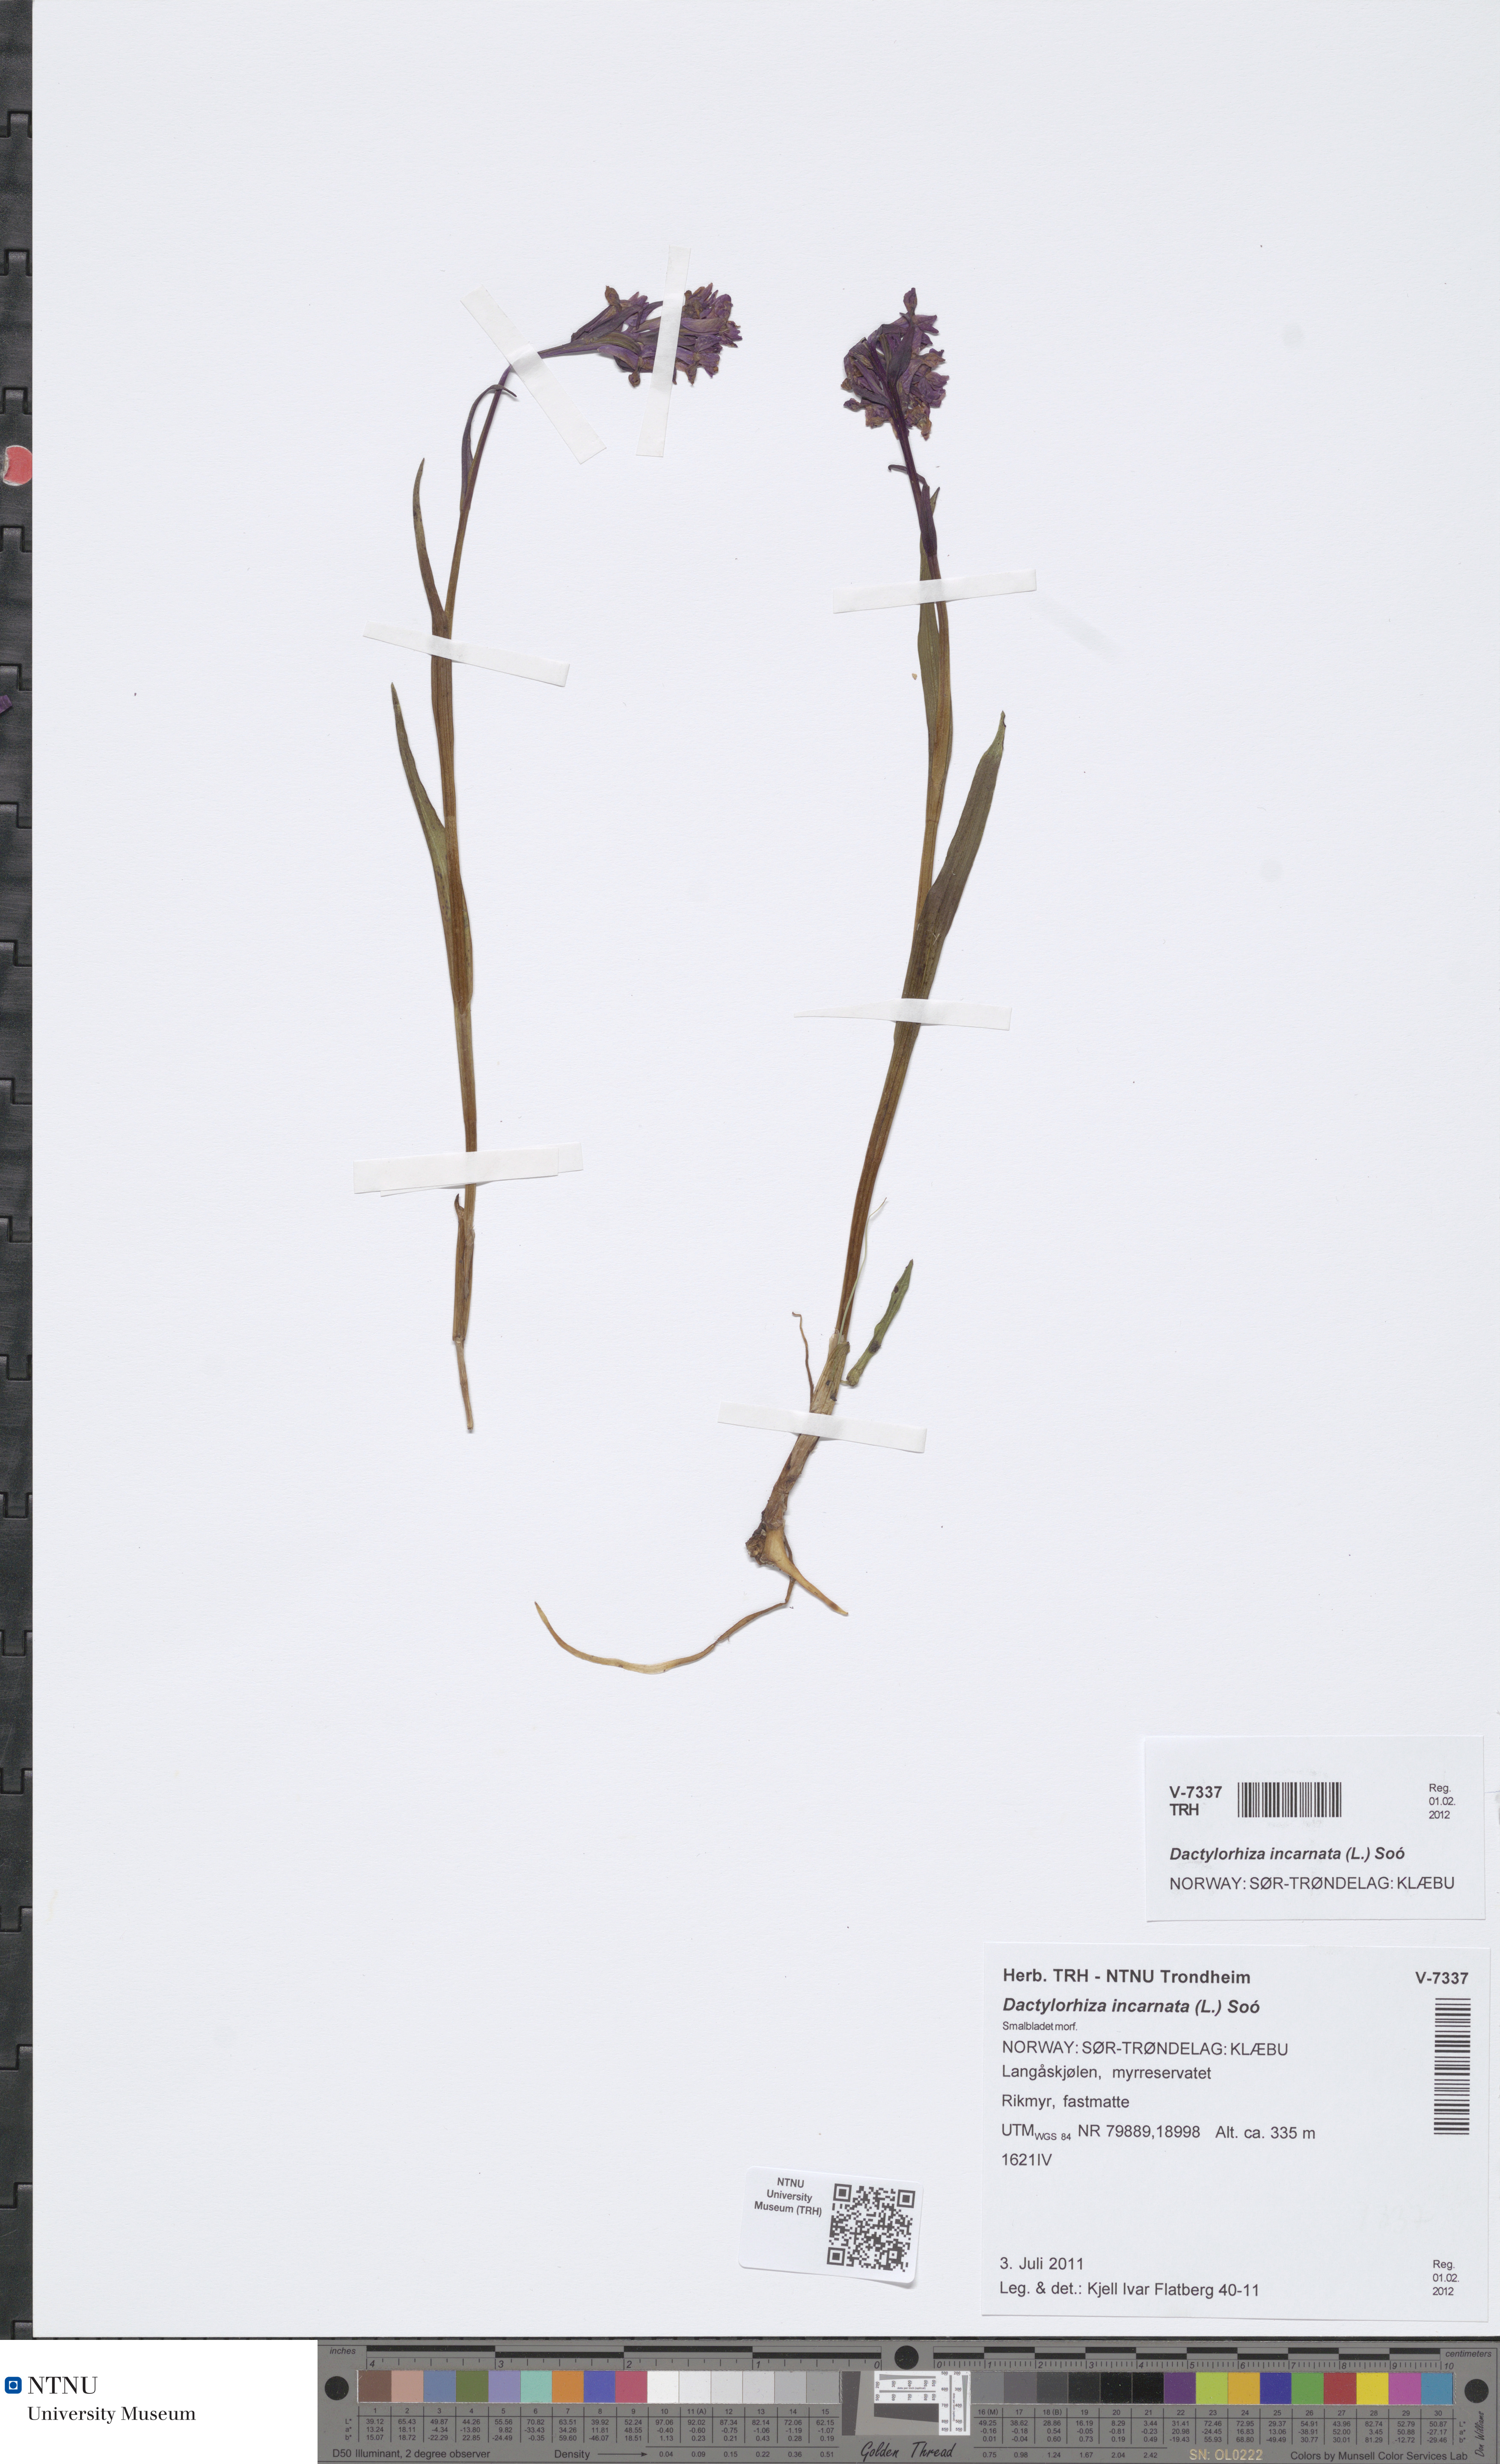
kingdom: Plantae
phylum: Tracheophyta
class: Liliopsida
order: Asparagales
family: Orchidaceae
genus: Dactylorhiza
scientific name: Dactylorhiza incarnata
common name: Early marsh-orchid
